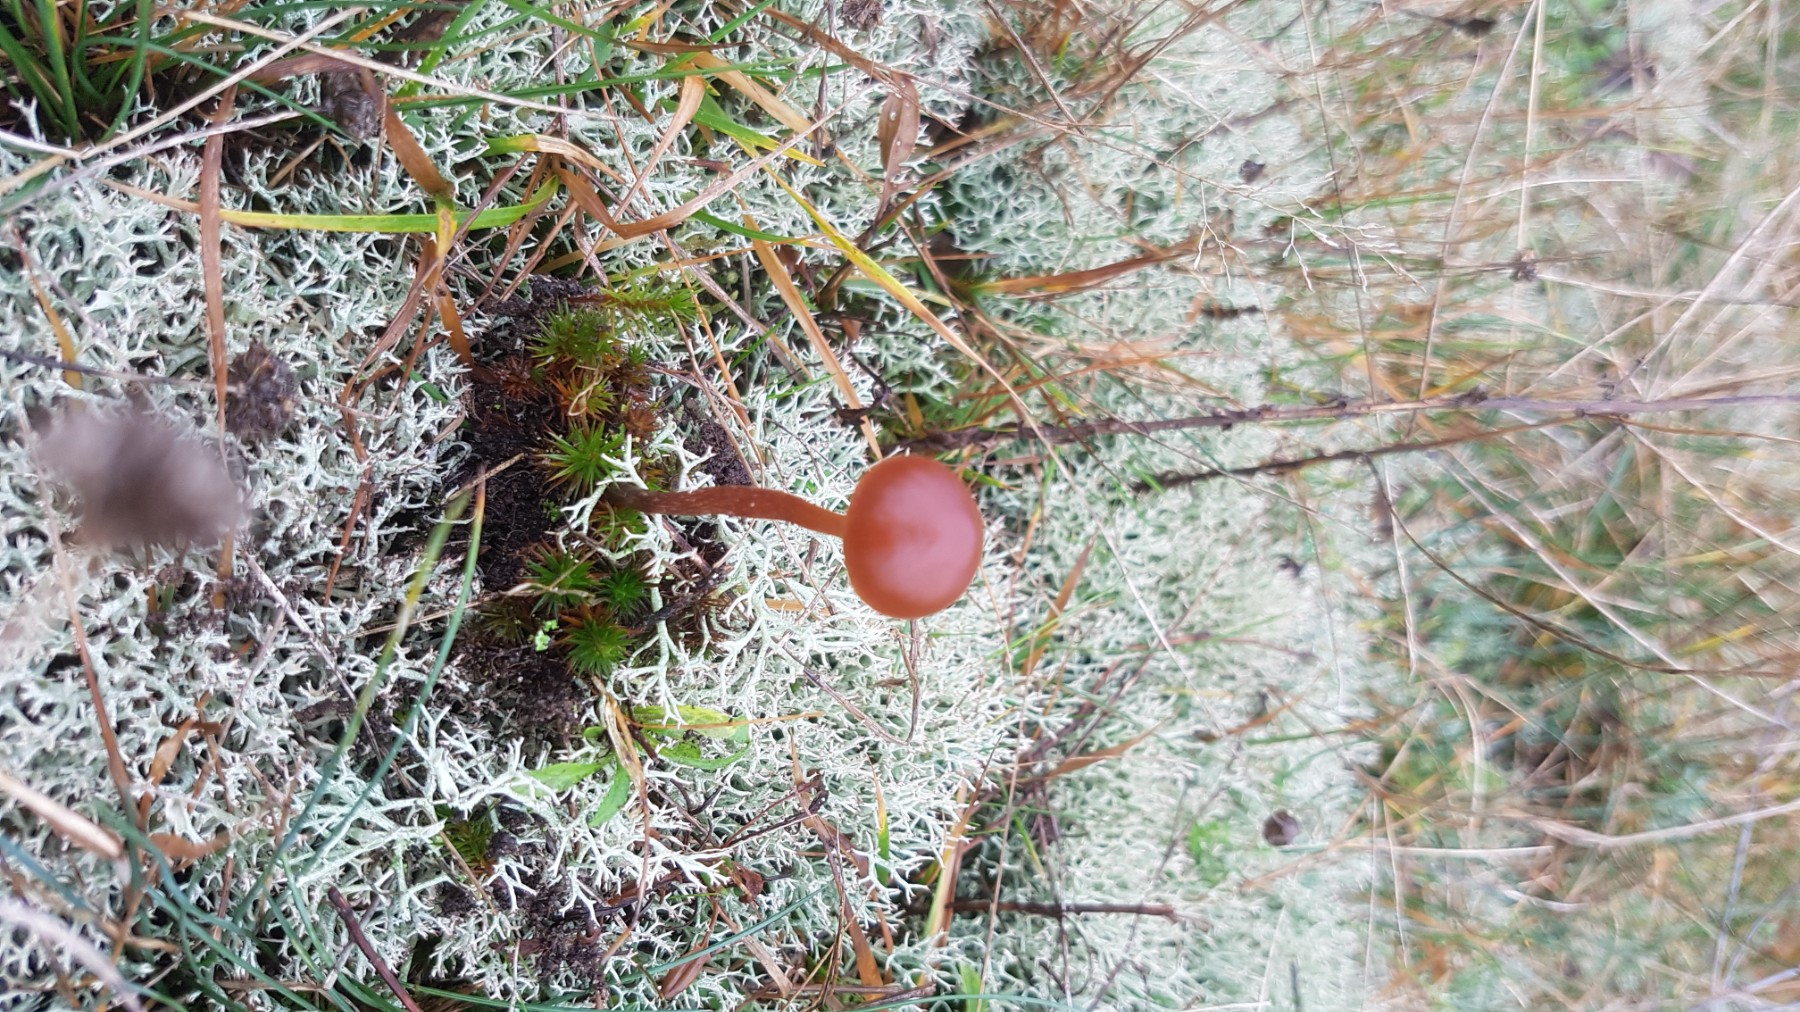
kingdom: Fungi
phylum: Basidiomycota
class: Agaricomycetes
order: Agaricales
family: Strophariaceae
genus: Deconica
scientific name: Deconica montana
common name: rødbrun stråhat
